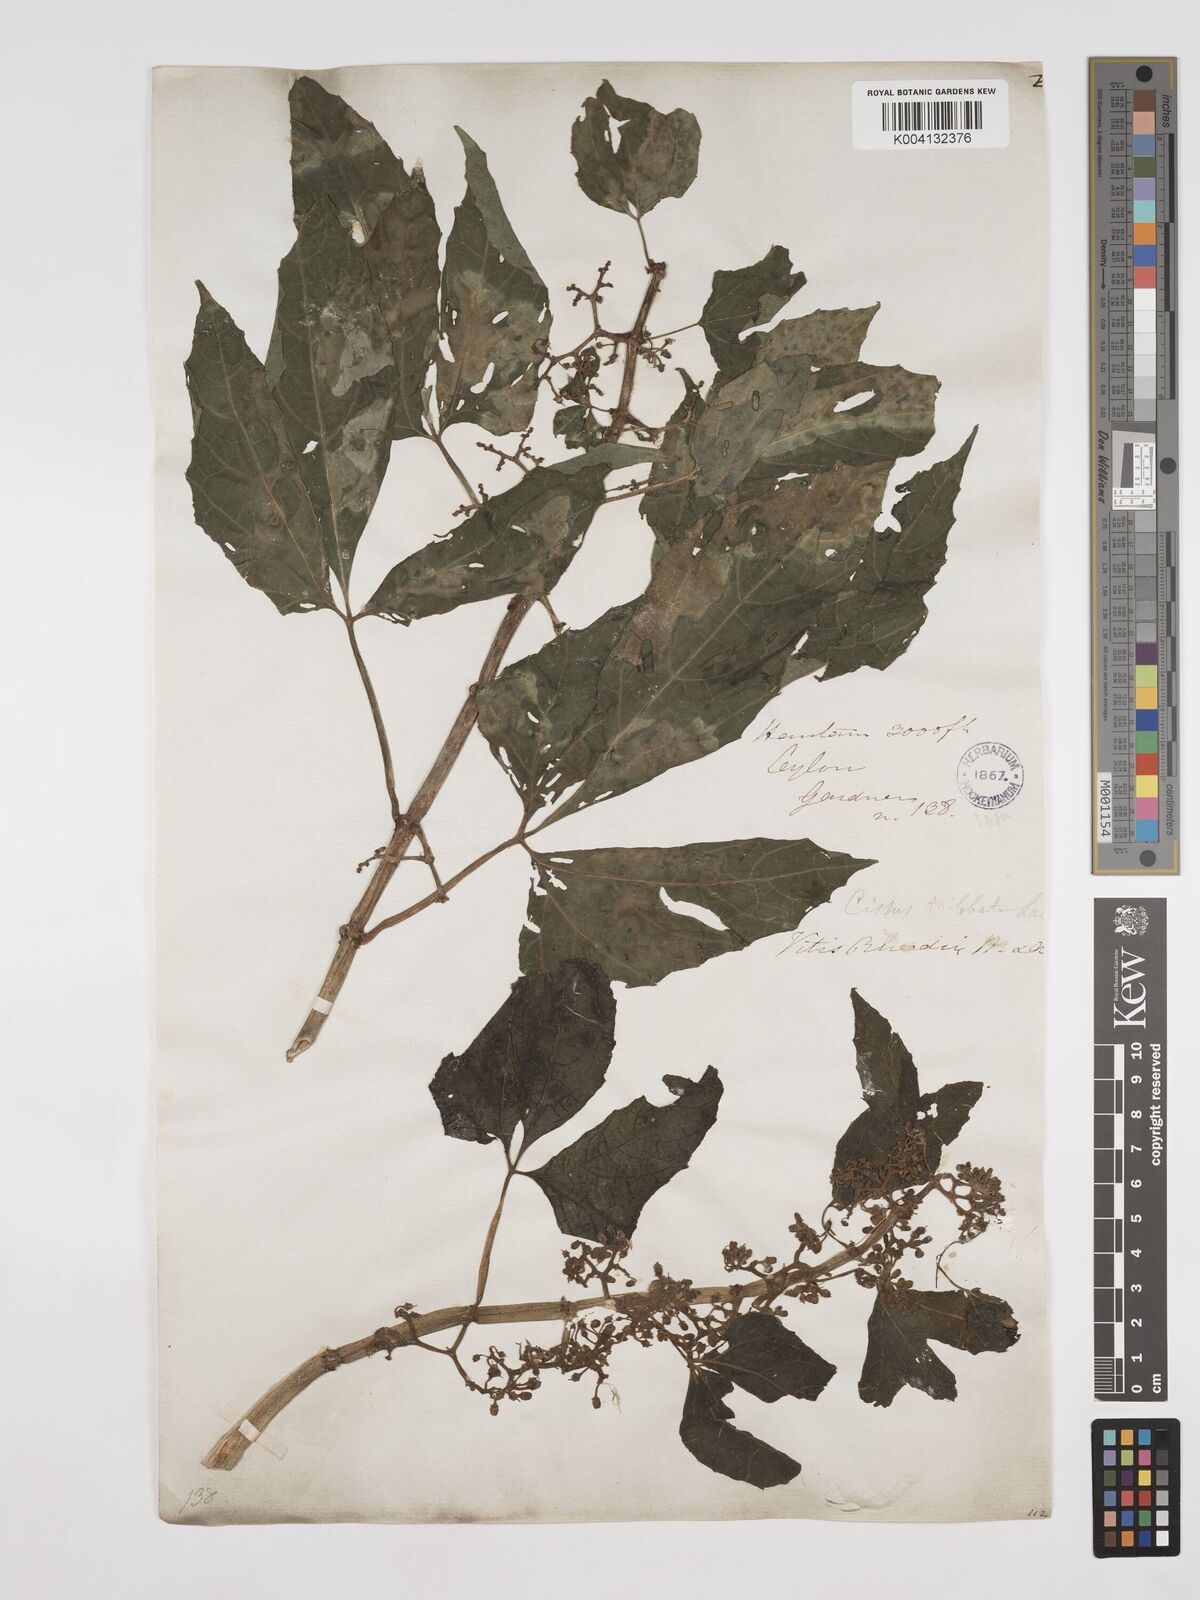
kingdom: Plantae
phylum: Tracheophyta
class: Magnoliopsida
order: Vitales
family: Vitaceae
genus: Cissus
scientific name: Cissus trilobata
